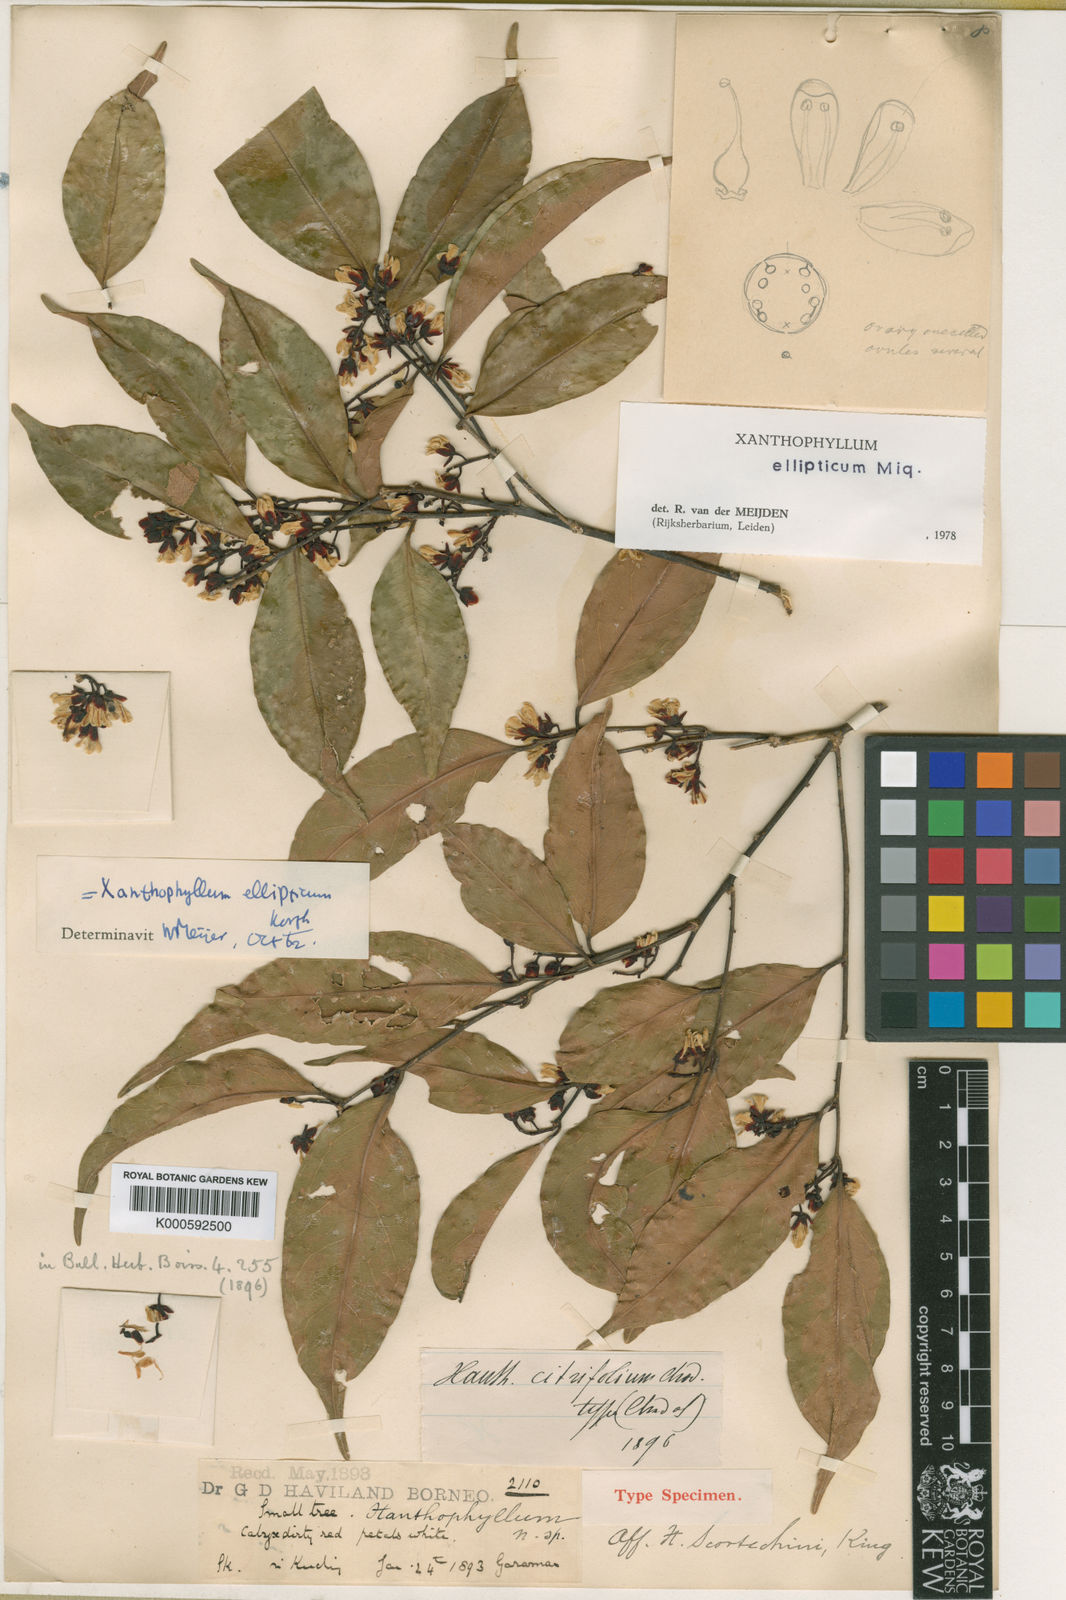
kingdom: Plantae
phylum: Tracheophyta
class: Magnoliopsida
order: Fabales
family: Polygalaceae
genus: Xanthophyllum
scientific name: Xanthophyllum ellipticum
